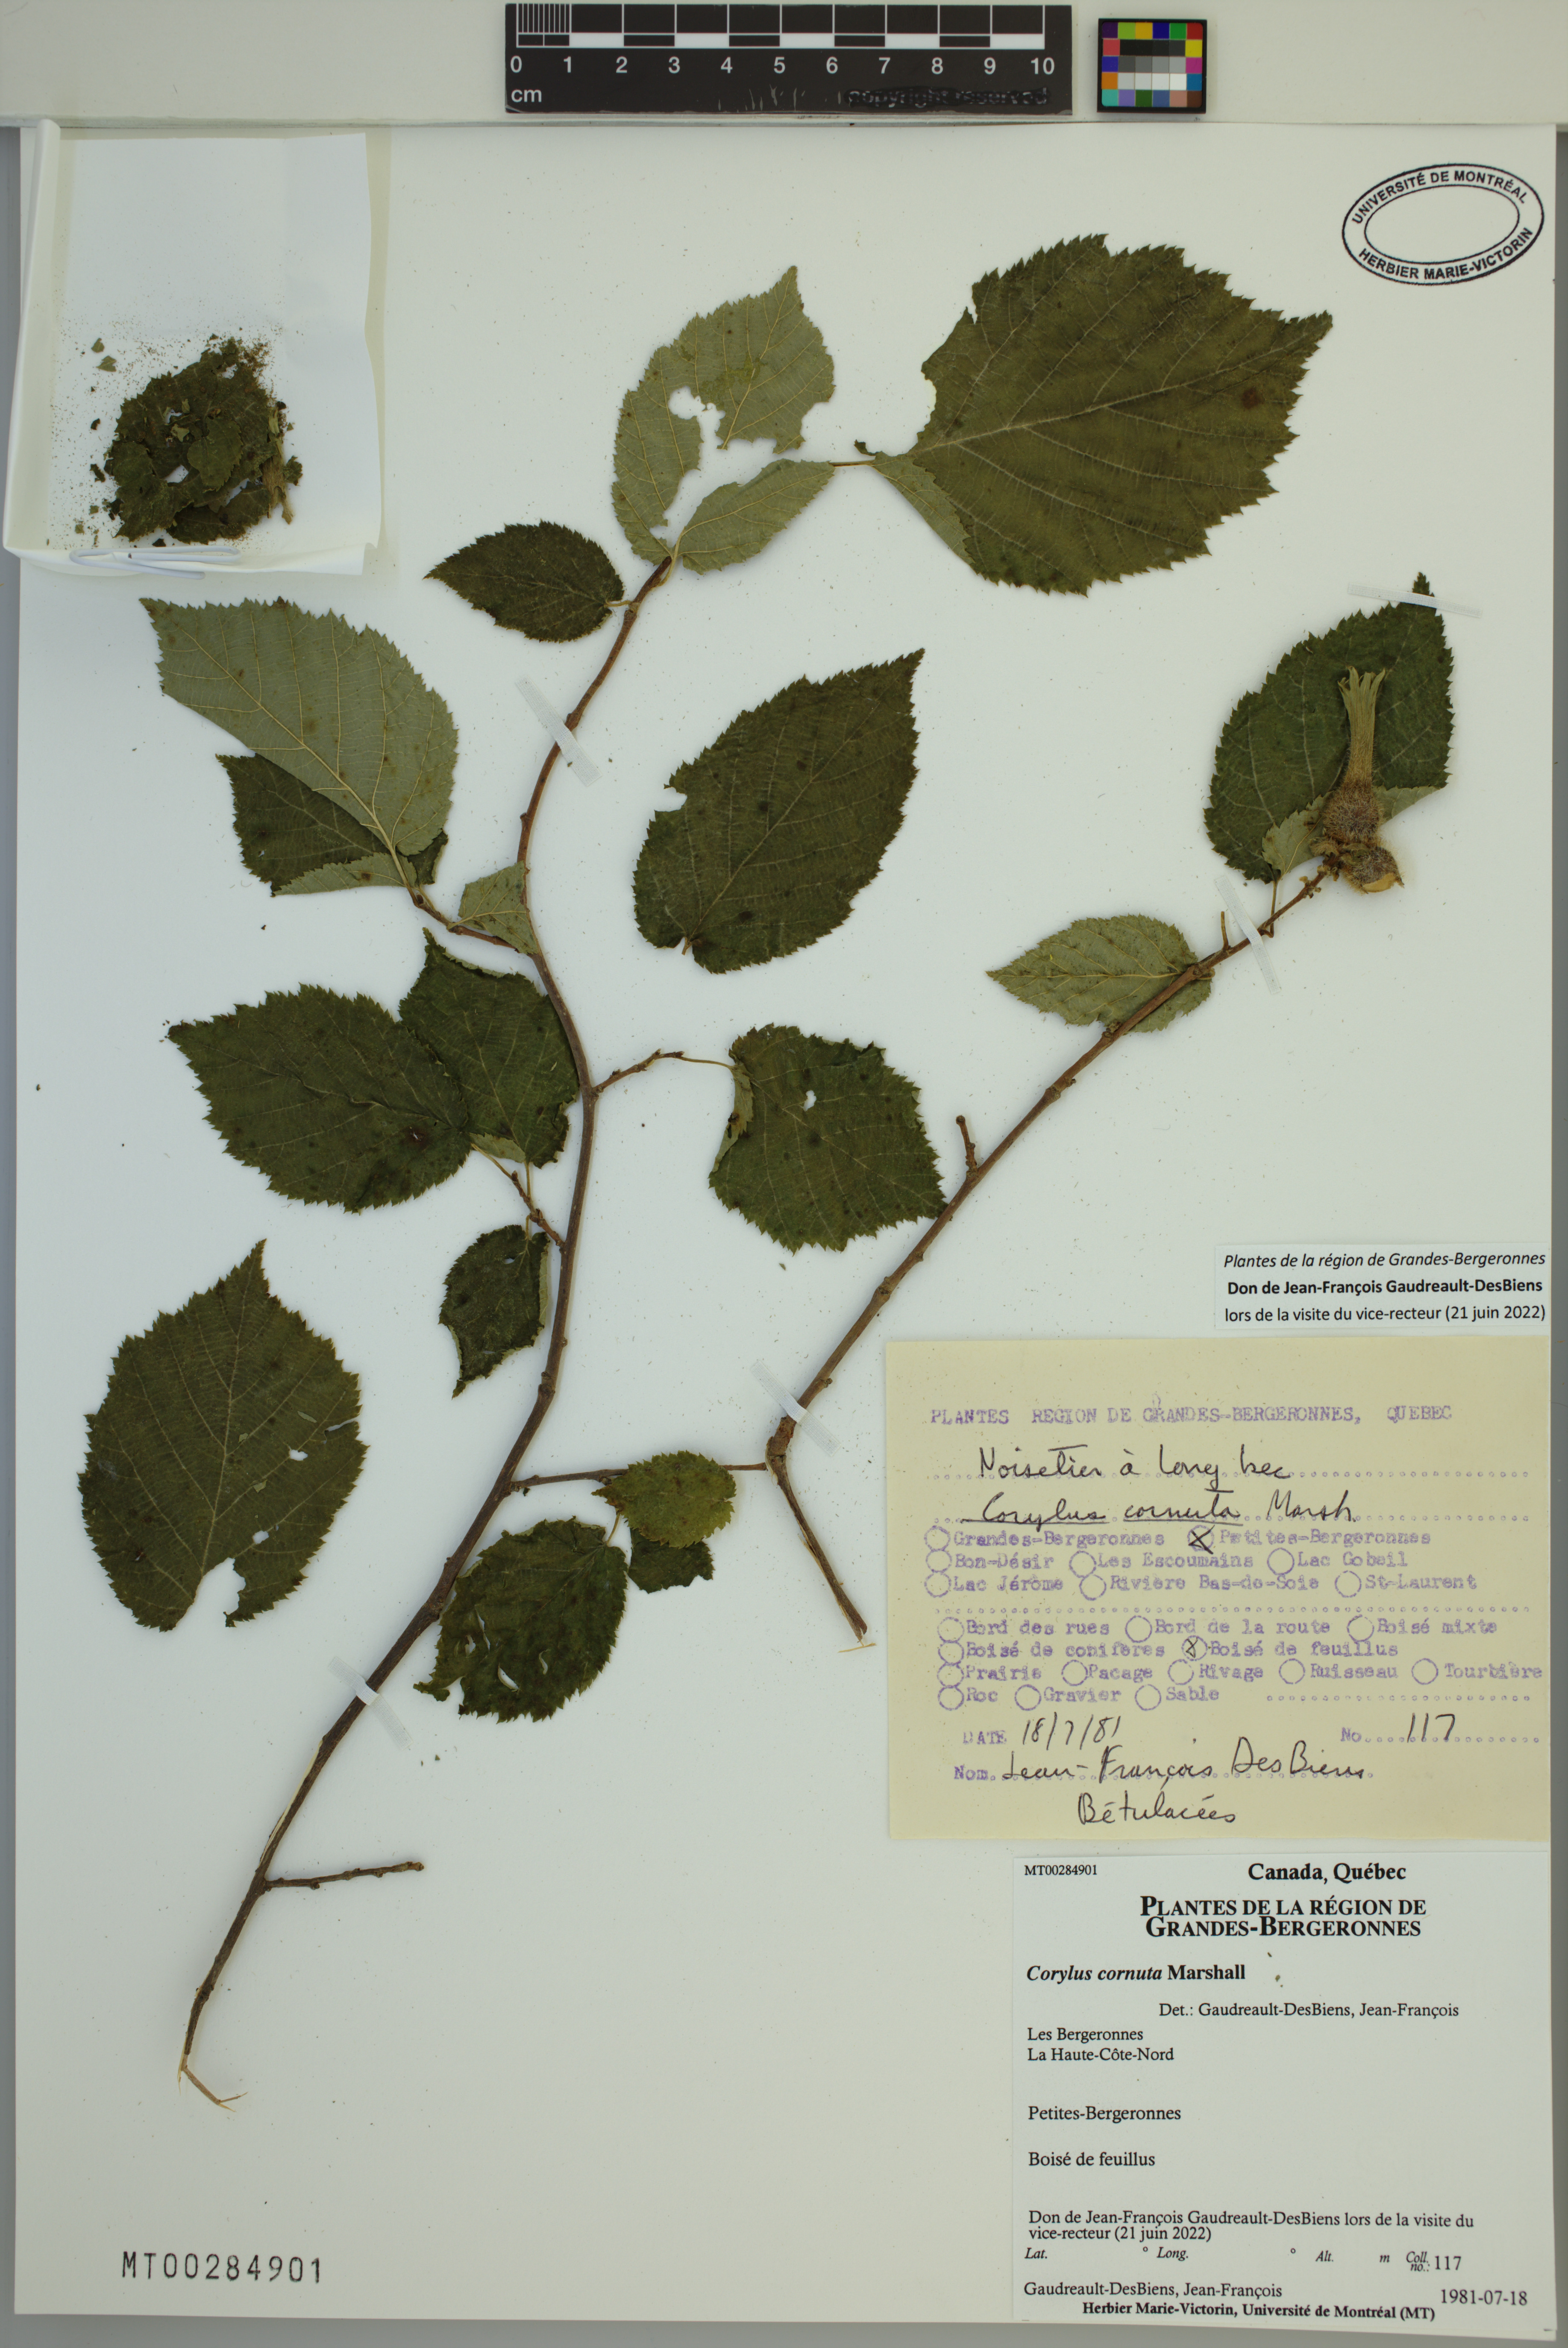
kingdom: Plantae
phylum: Tracheophyta
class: Magnoliopsida
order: Fagales
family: Betulaceae
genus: Corylus
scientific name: Corylus cornuta
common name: Beaked hazel
